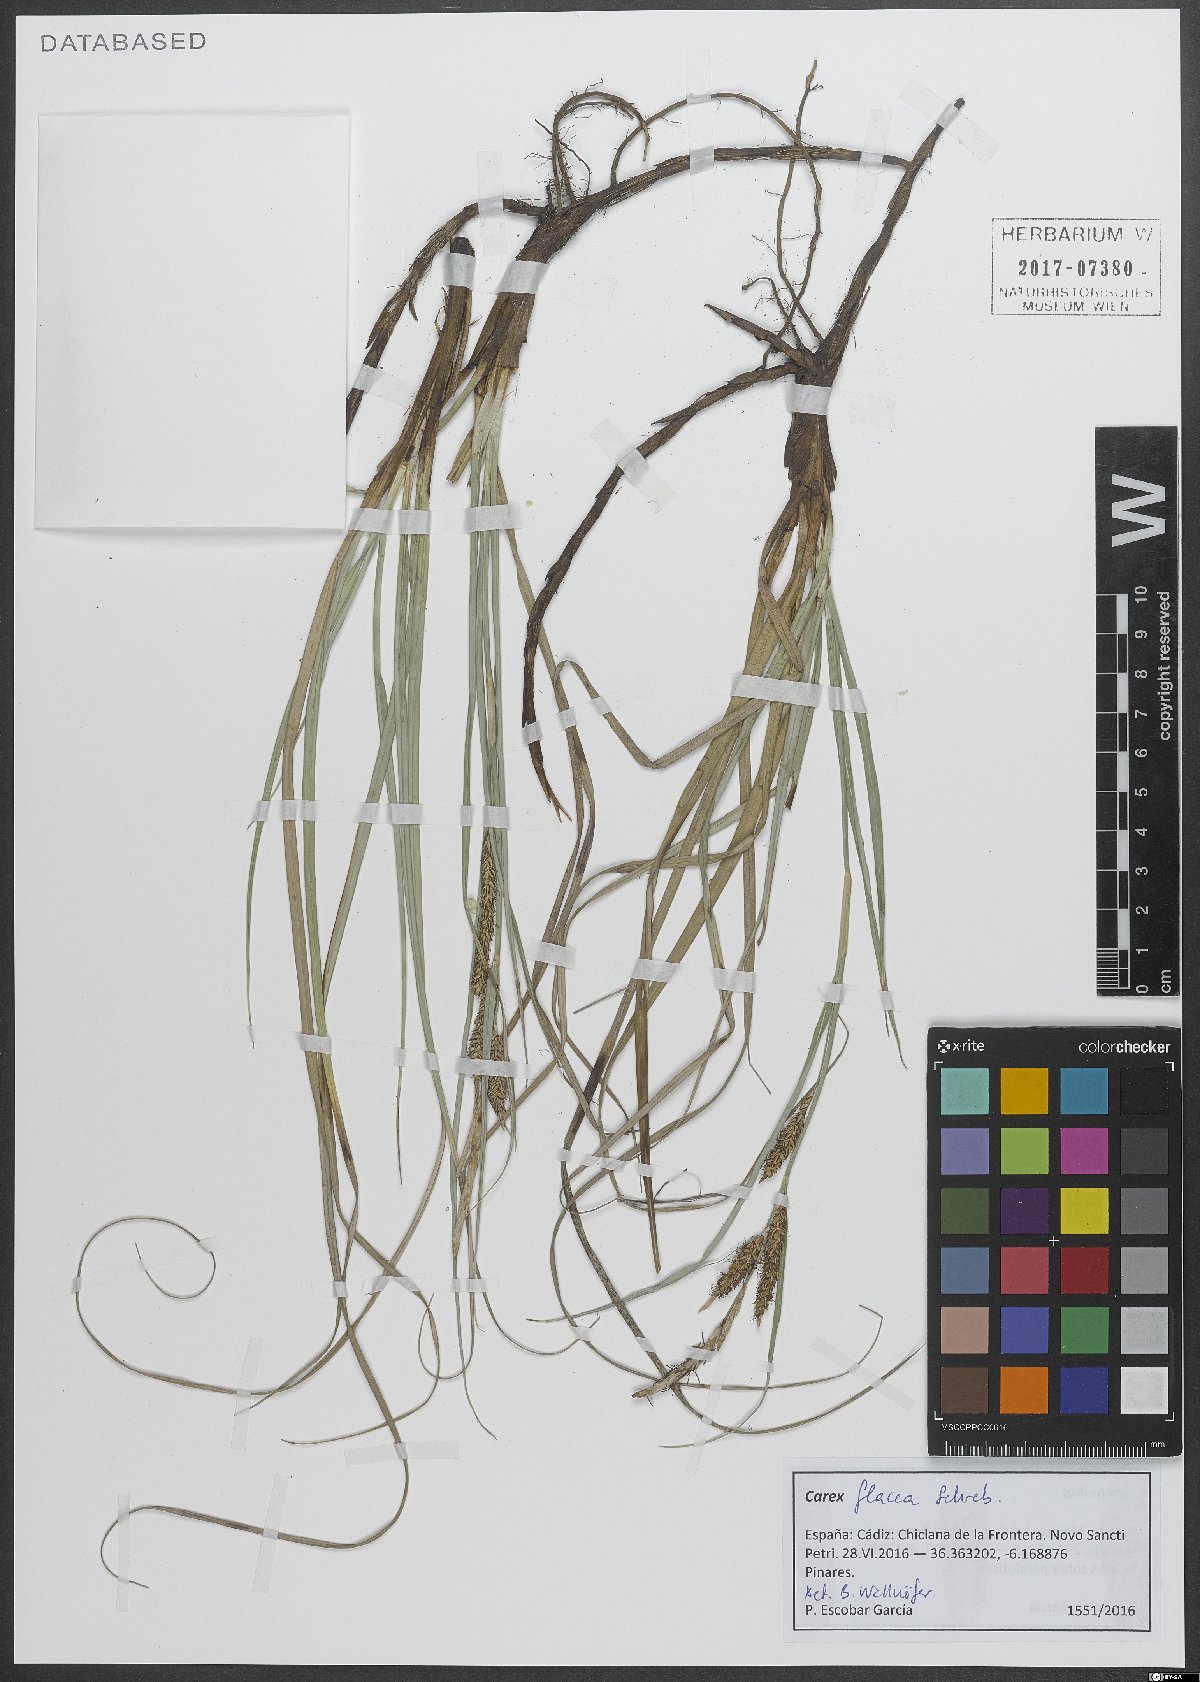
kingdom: Plantae
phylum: Tracheophyta
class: Liliopsida
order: Poales
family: Cyperaceae
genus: Carex
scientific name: Carex flacca
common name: Glaucous sedge
